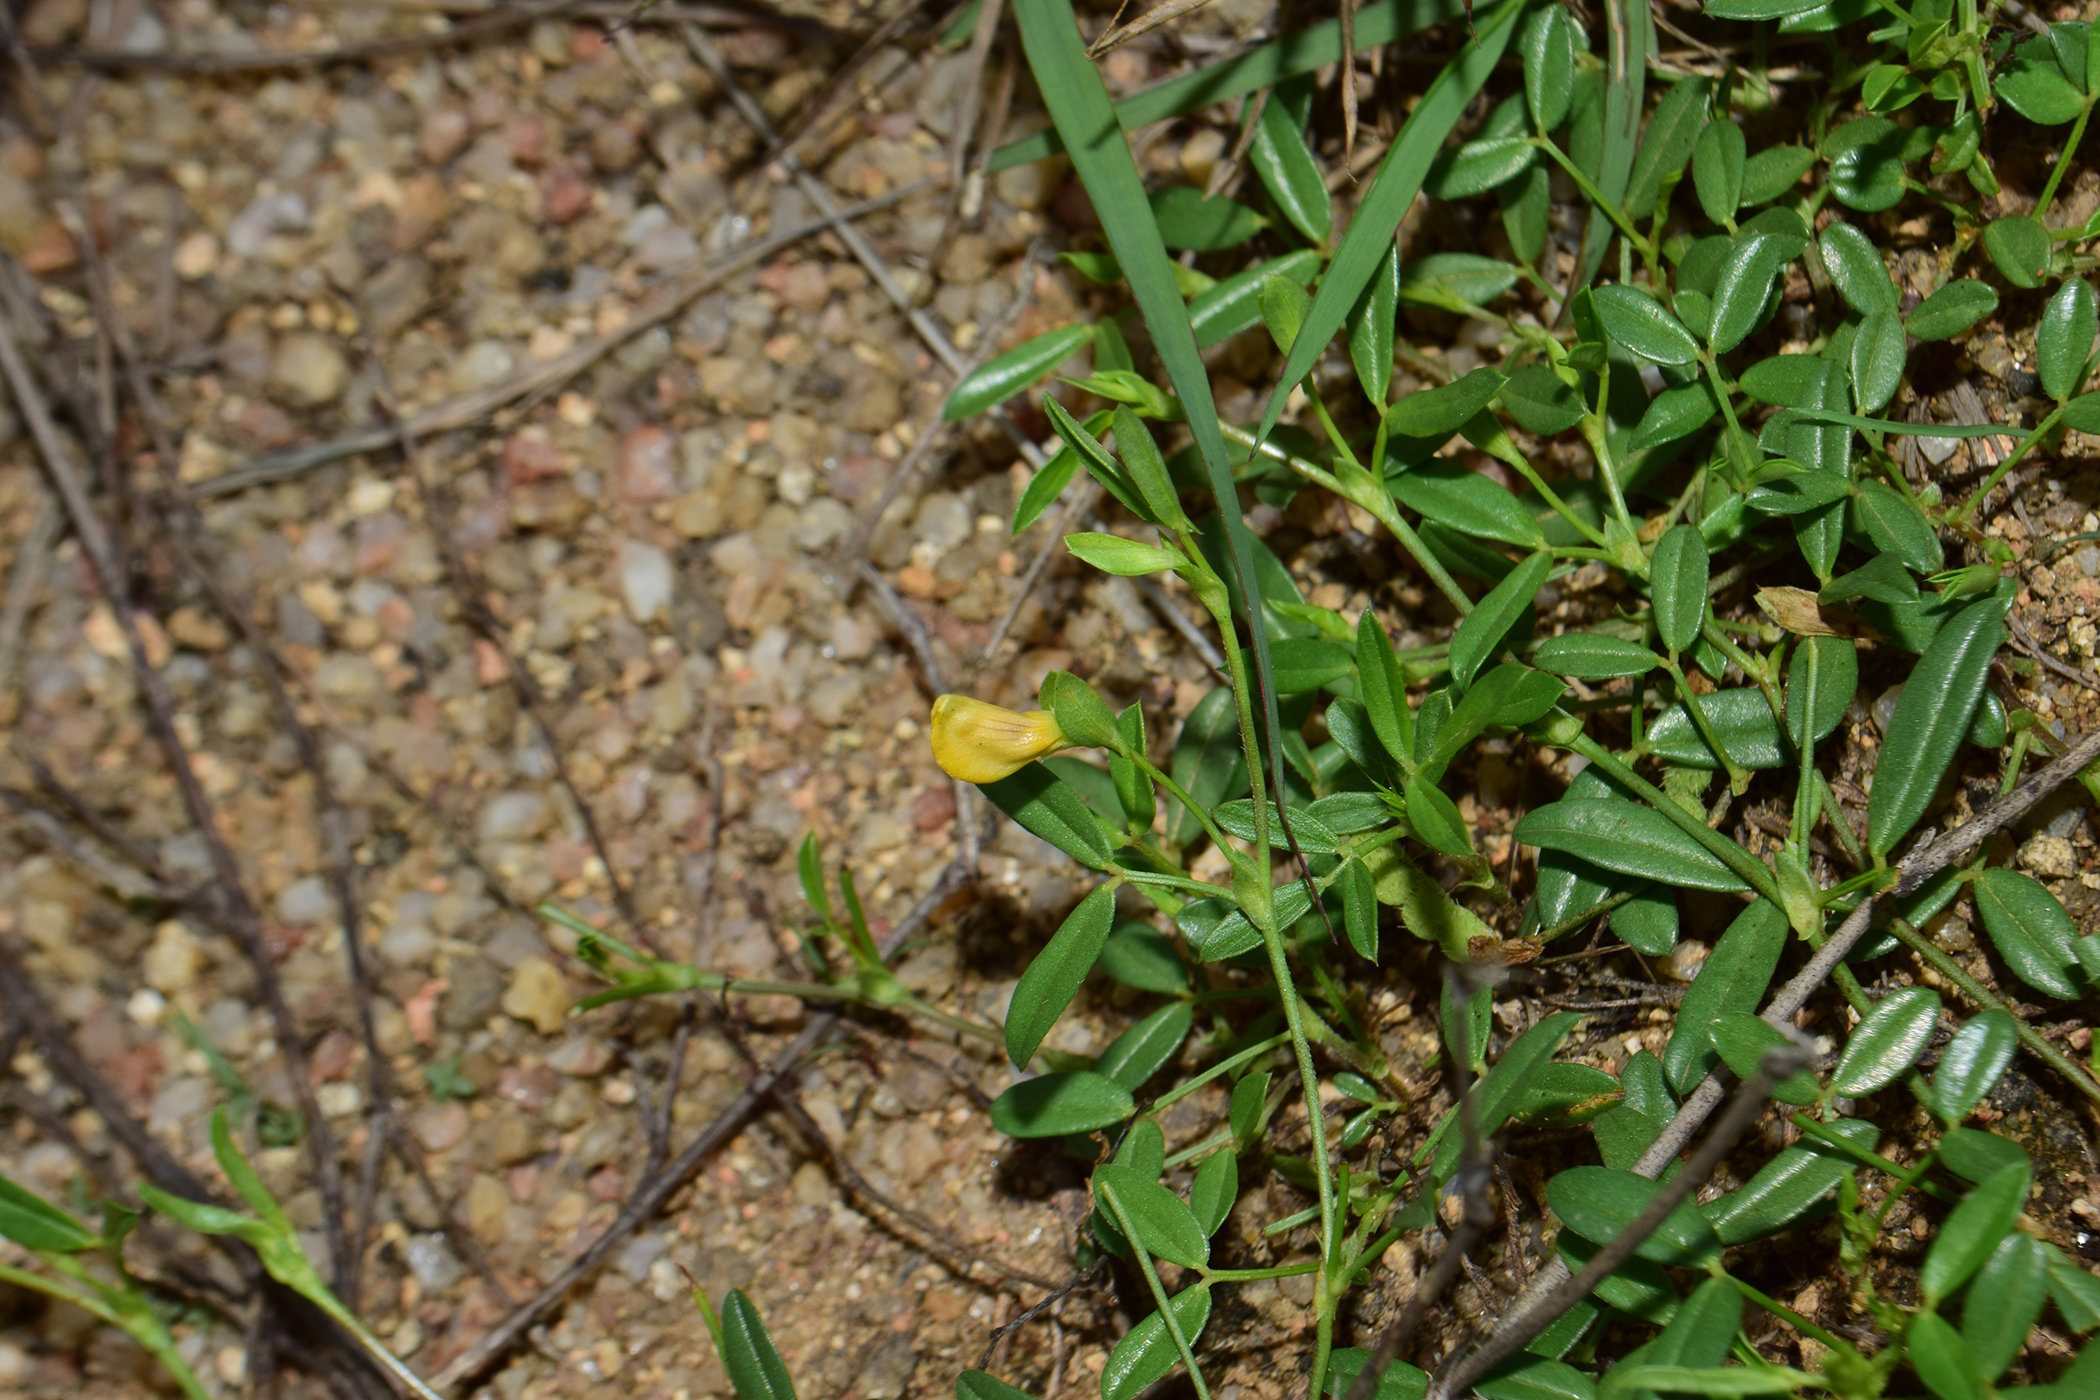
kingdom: Plantae
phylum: Tracheophyta
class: Magnoliopsida
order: Fabales
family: Fabaceae
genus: Zornia
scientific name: Zornia diphylla
